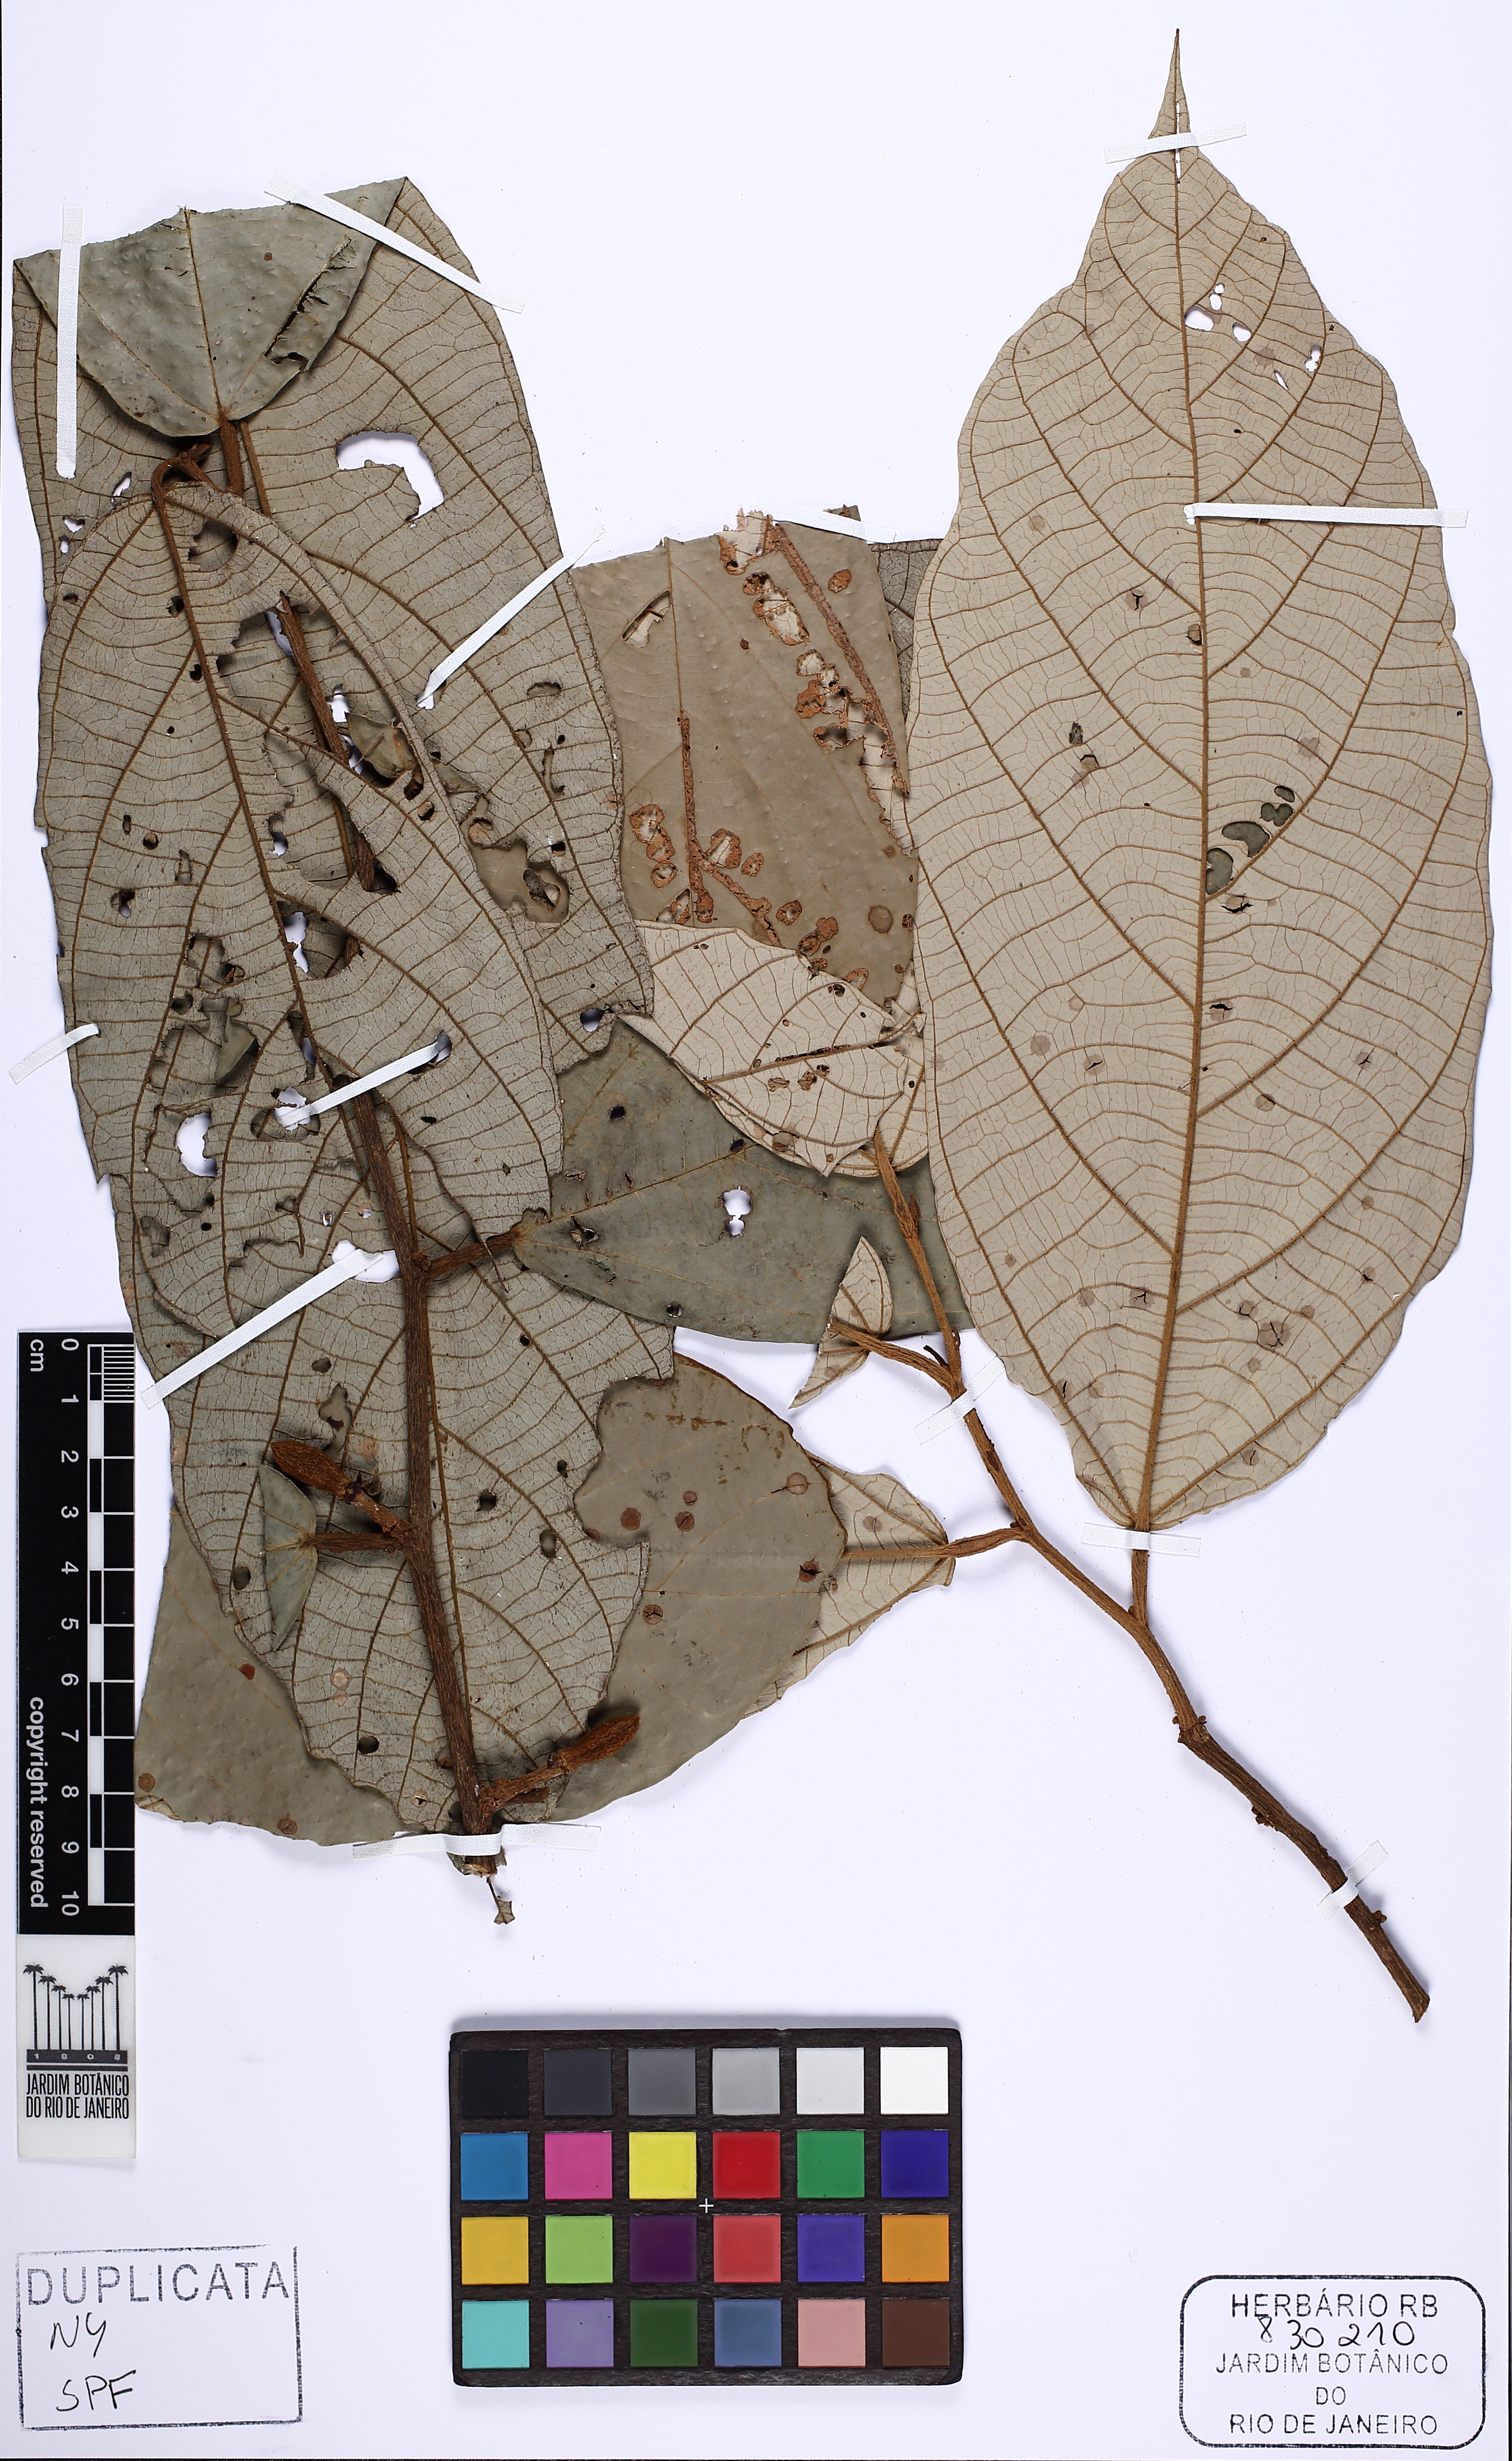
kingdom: Plantae
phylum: Tracheophyta
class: Magnoliopsida
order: Malvales
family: Malvaceae
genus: Theobroma
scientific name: Theobroma subincanum
